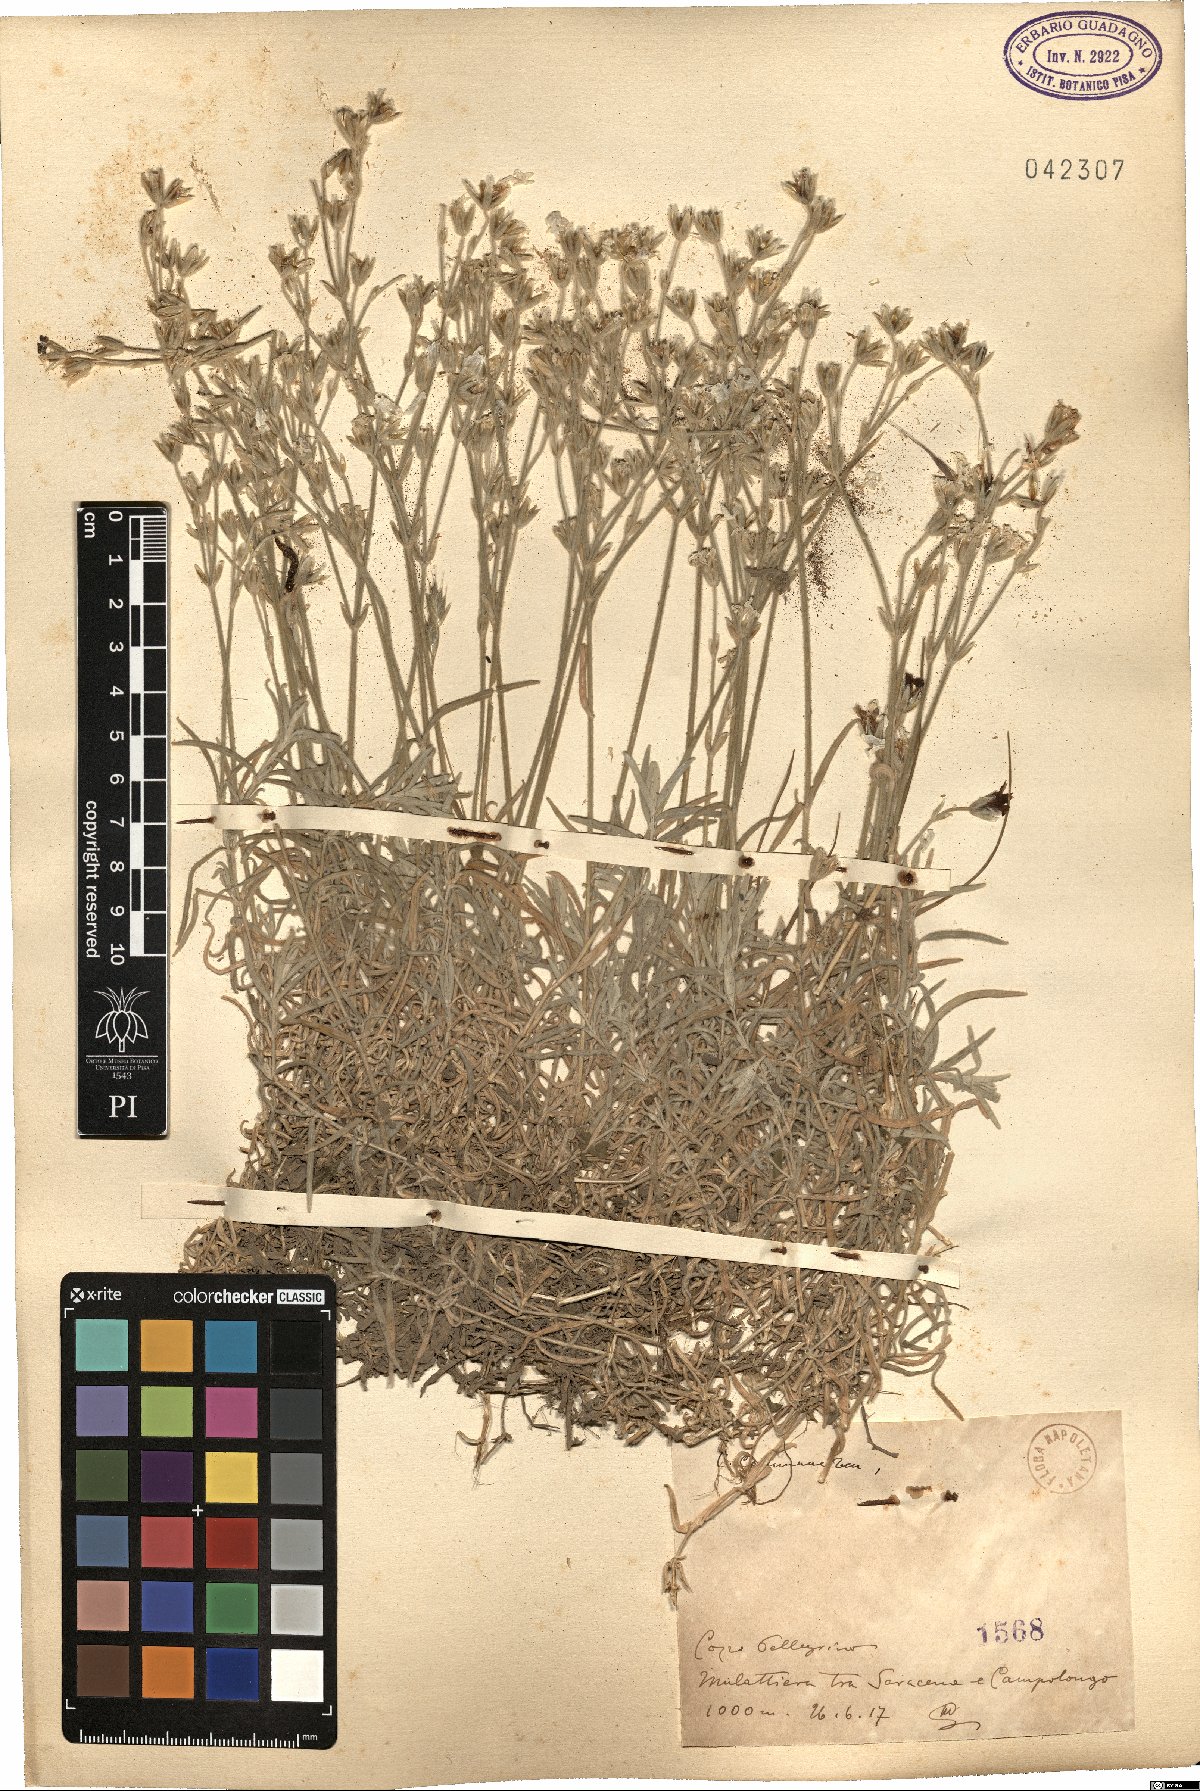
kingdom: Plantae
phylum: Tracheophyta
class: Magnoliopsida
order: Caryophyllales
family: Caryophyllaceae
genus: Cerastium
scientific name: Cerastium
